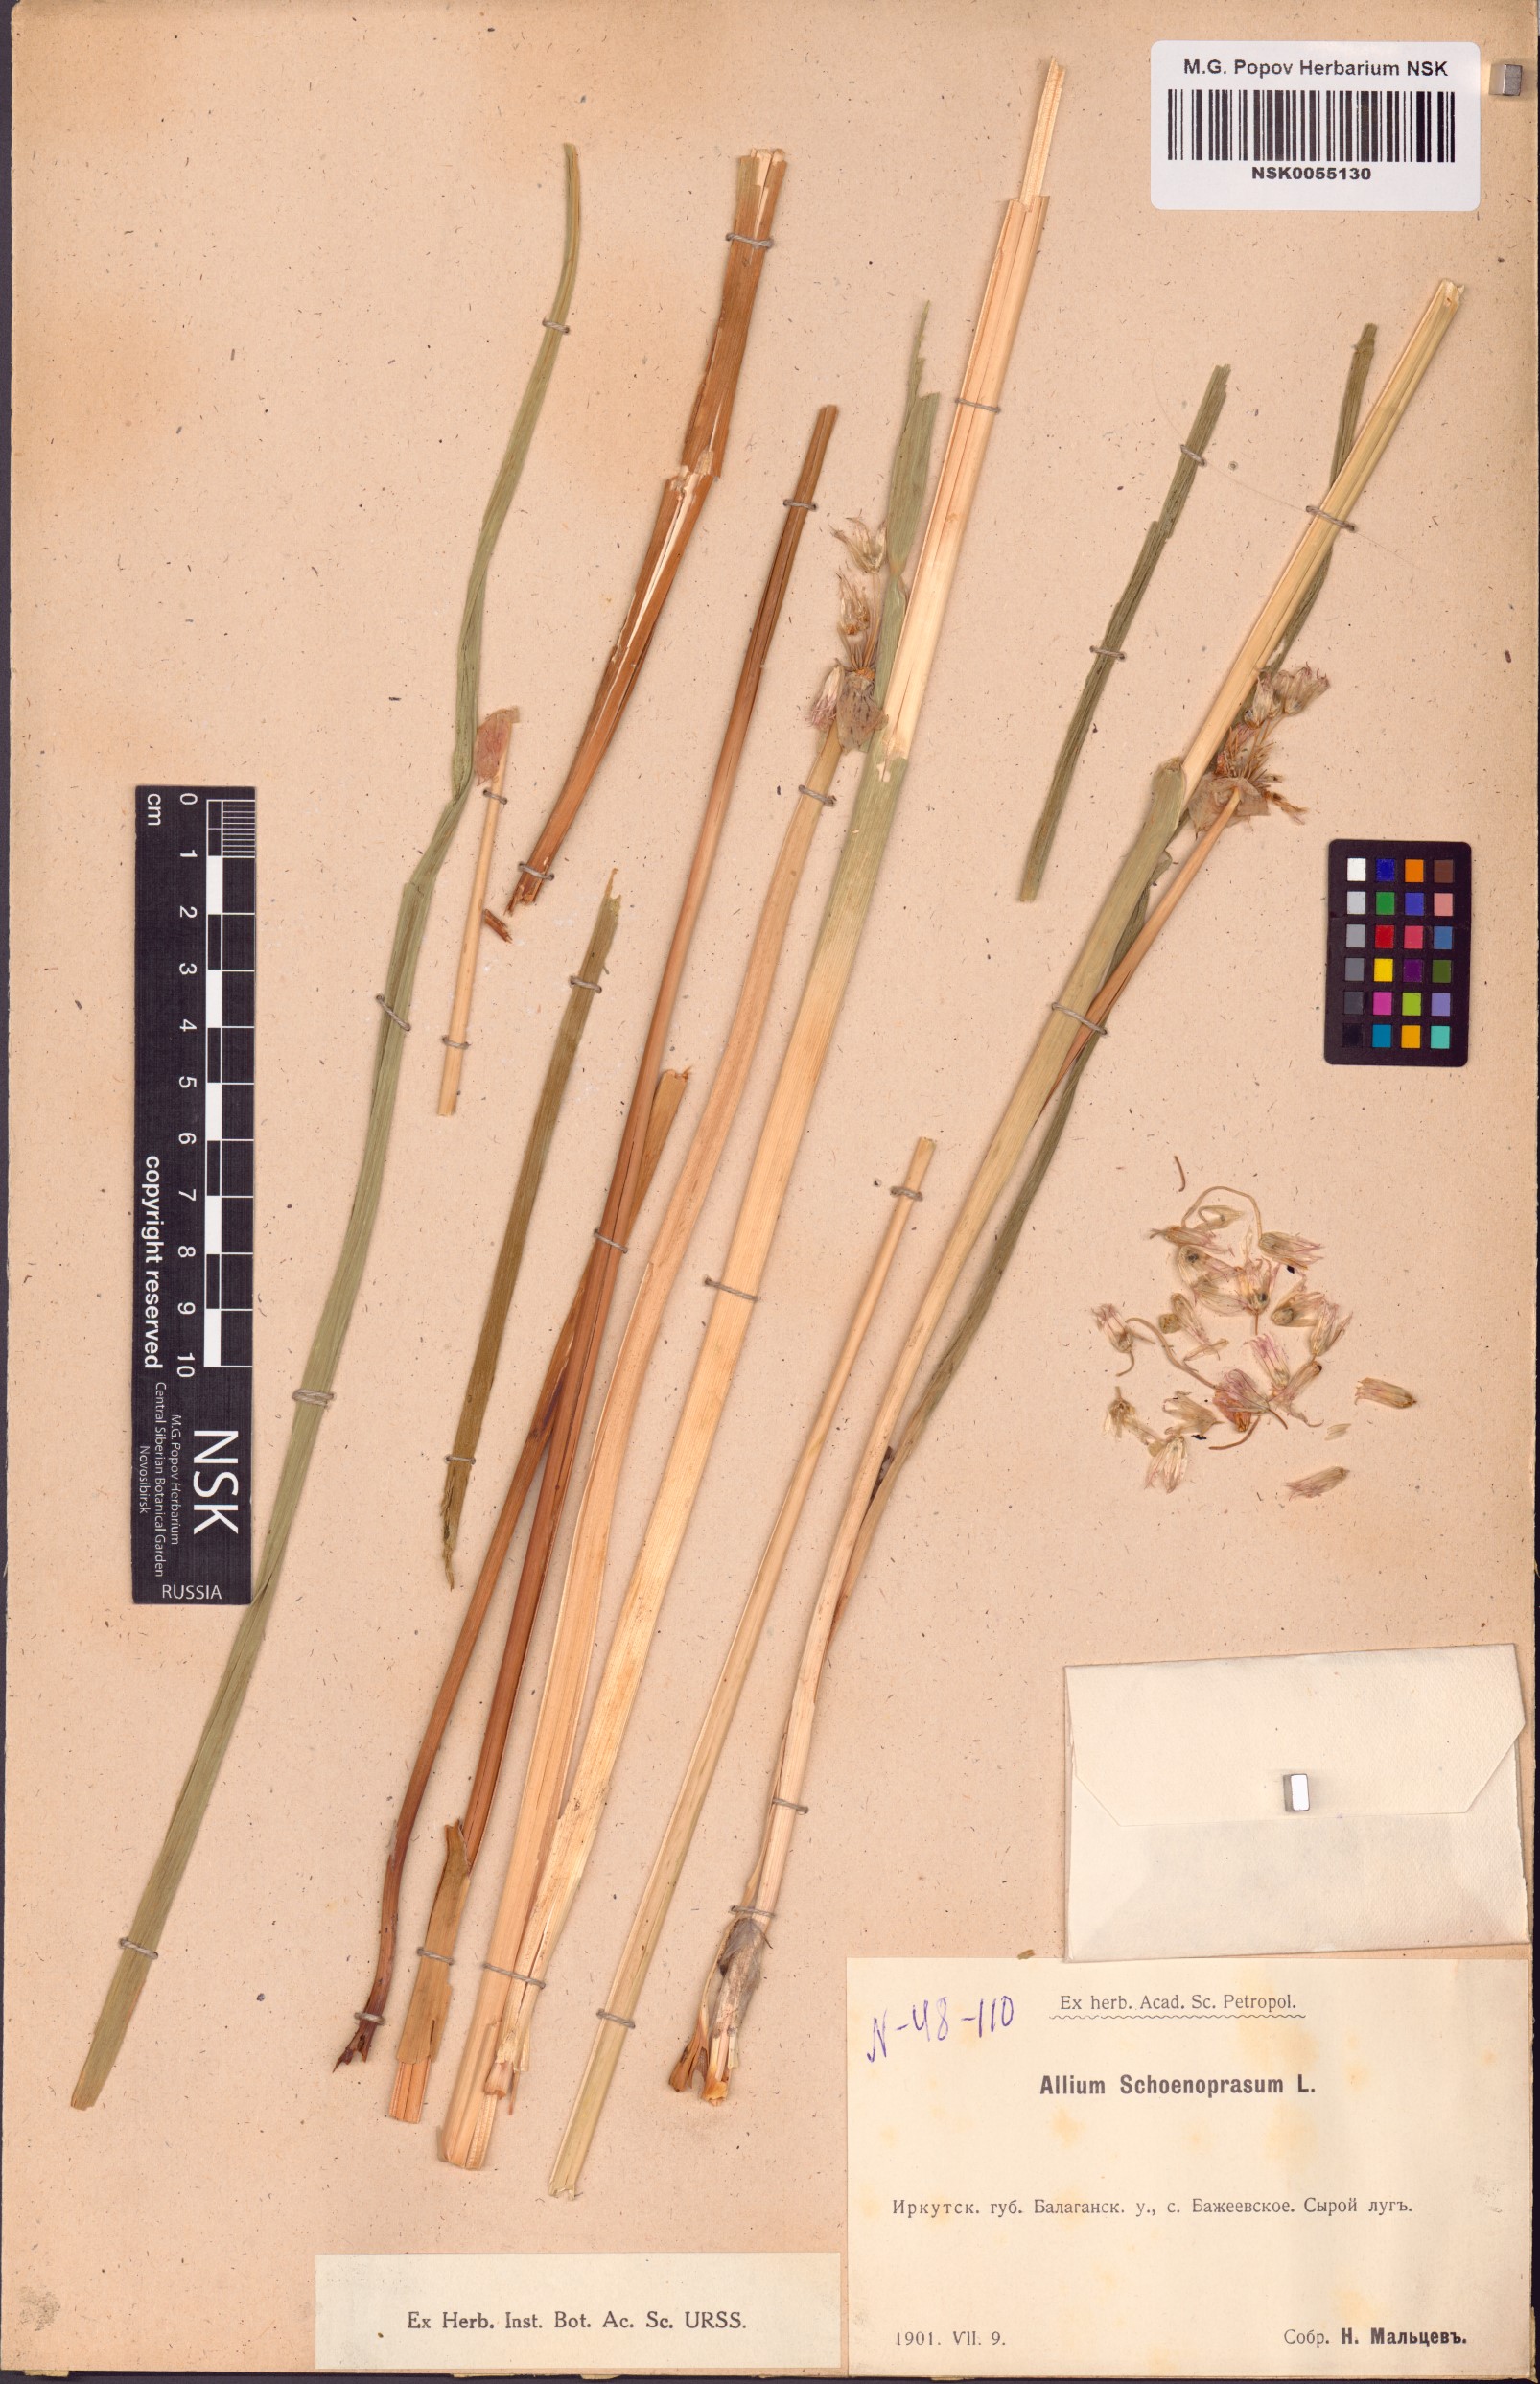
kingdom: Plantae
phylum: Tracheophyta
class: Liliopsida
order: Asparagales
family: Amaryllidaceae
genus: Allium
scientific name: Allium schoenoprasum
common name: Chives
